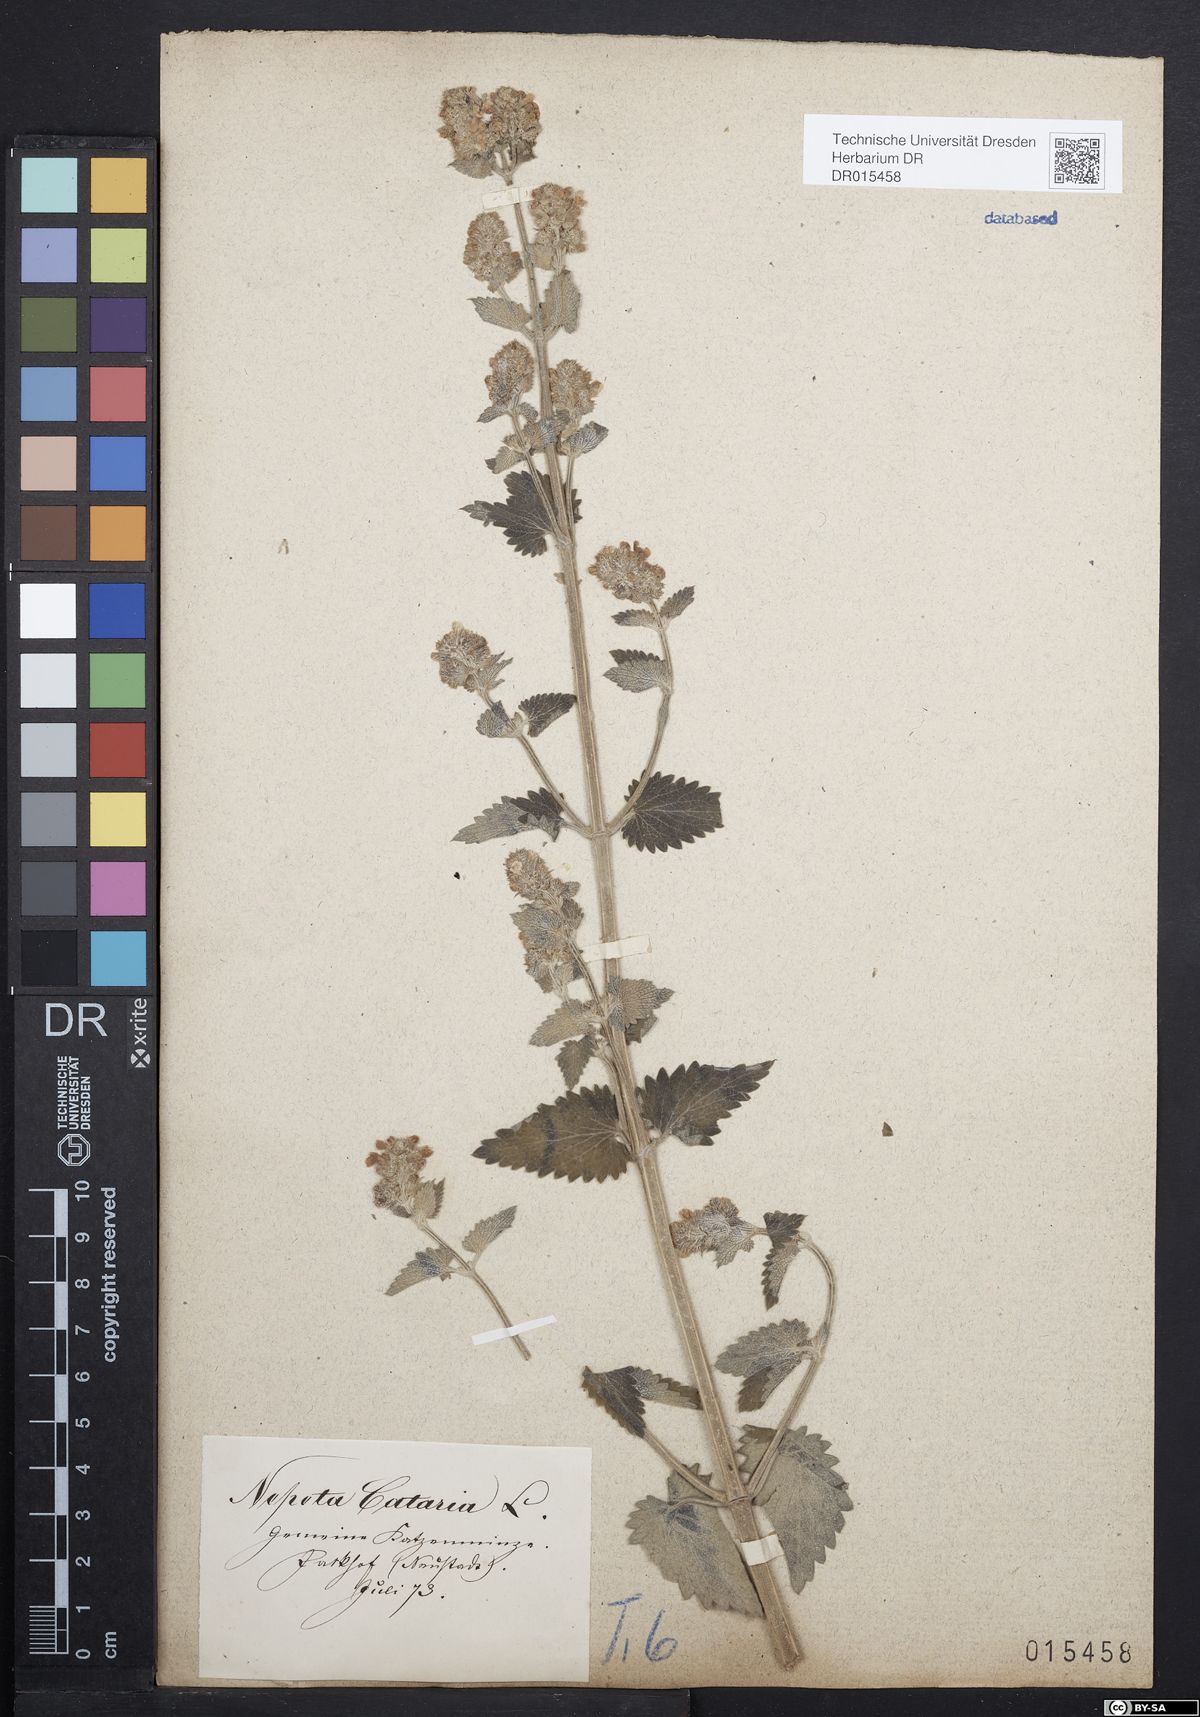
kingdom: Plantae
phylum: Tracheophyta
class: Magnoliopsida
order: Lamiales
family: Lamiaceae
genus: Nepeta
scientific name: Nepeta cataria
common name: Catnip
